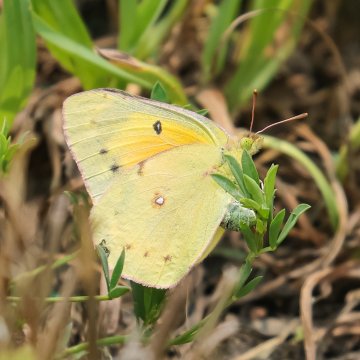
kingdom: Animalia
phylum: Arthropoda
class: Insecta
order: Lepidoptera
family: Pieridae
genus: Colias
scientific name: Colias eurytheme
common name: Orange Sulphur
